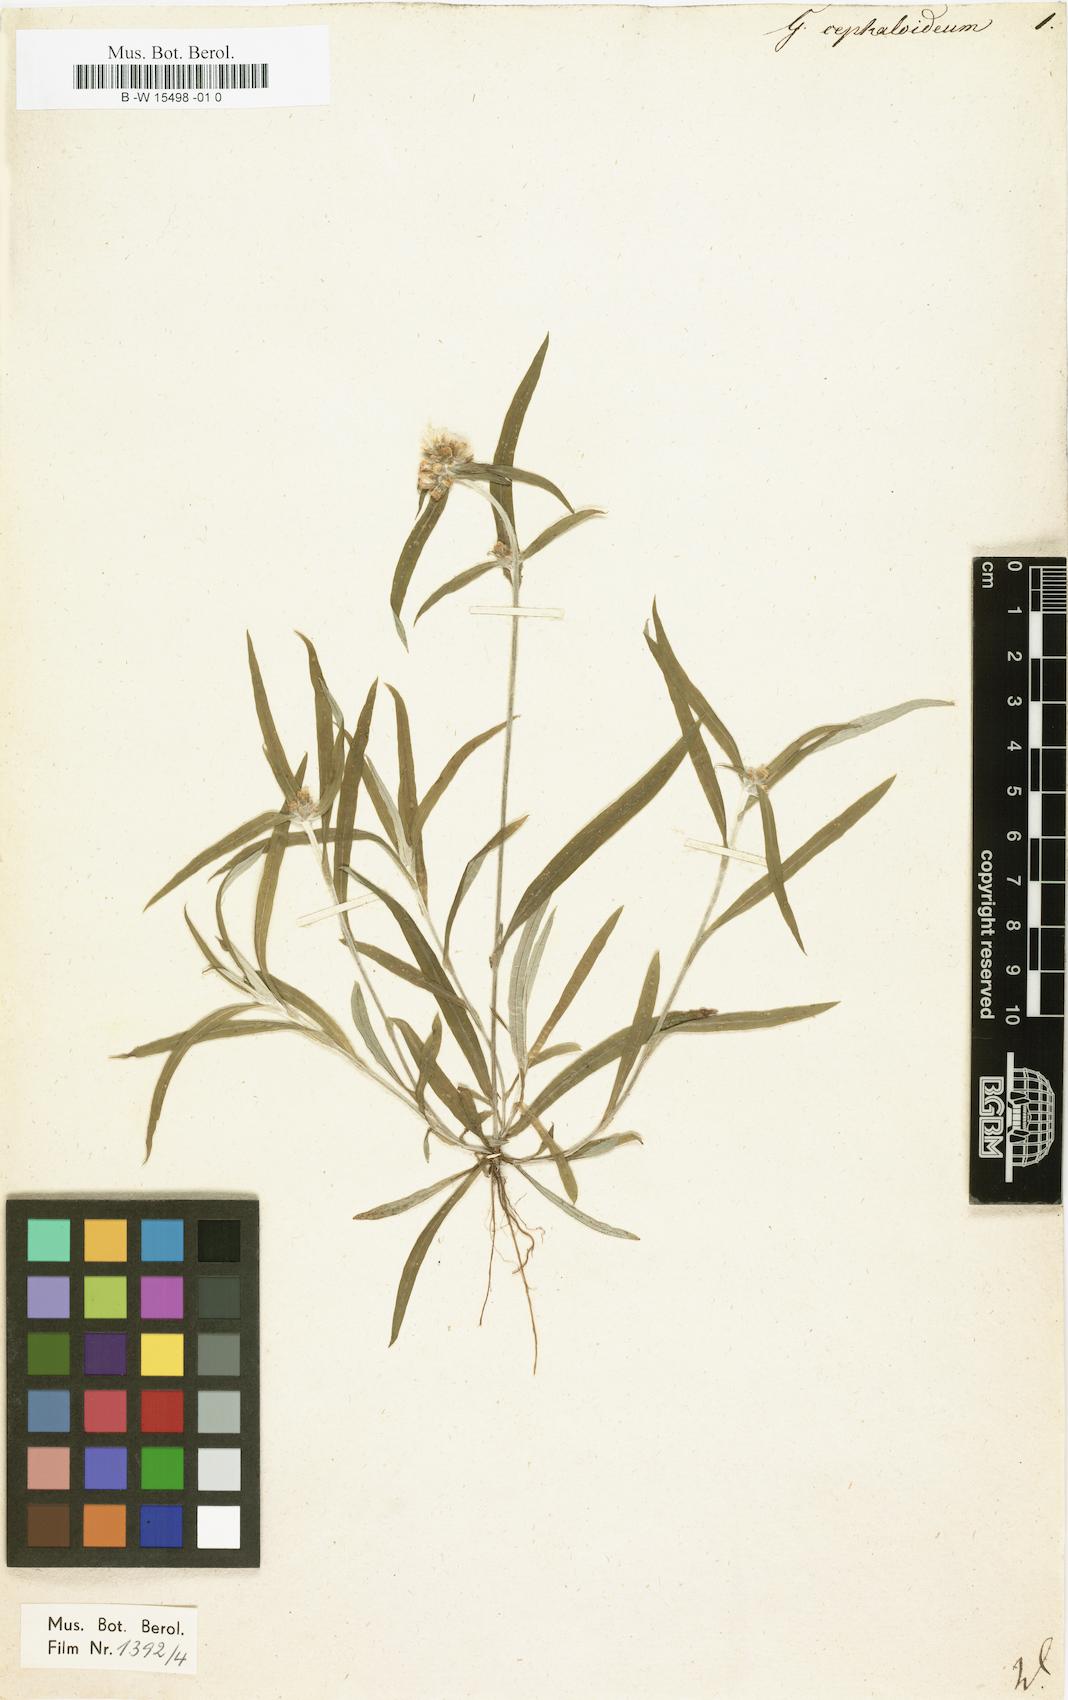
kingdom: Plantae
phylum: Tracheophyta
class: Magnoliopsida
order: Asterales
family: Asteraceae
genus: Euchiton
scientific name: Euchiton japonicus
